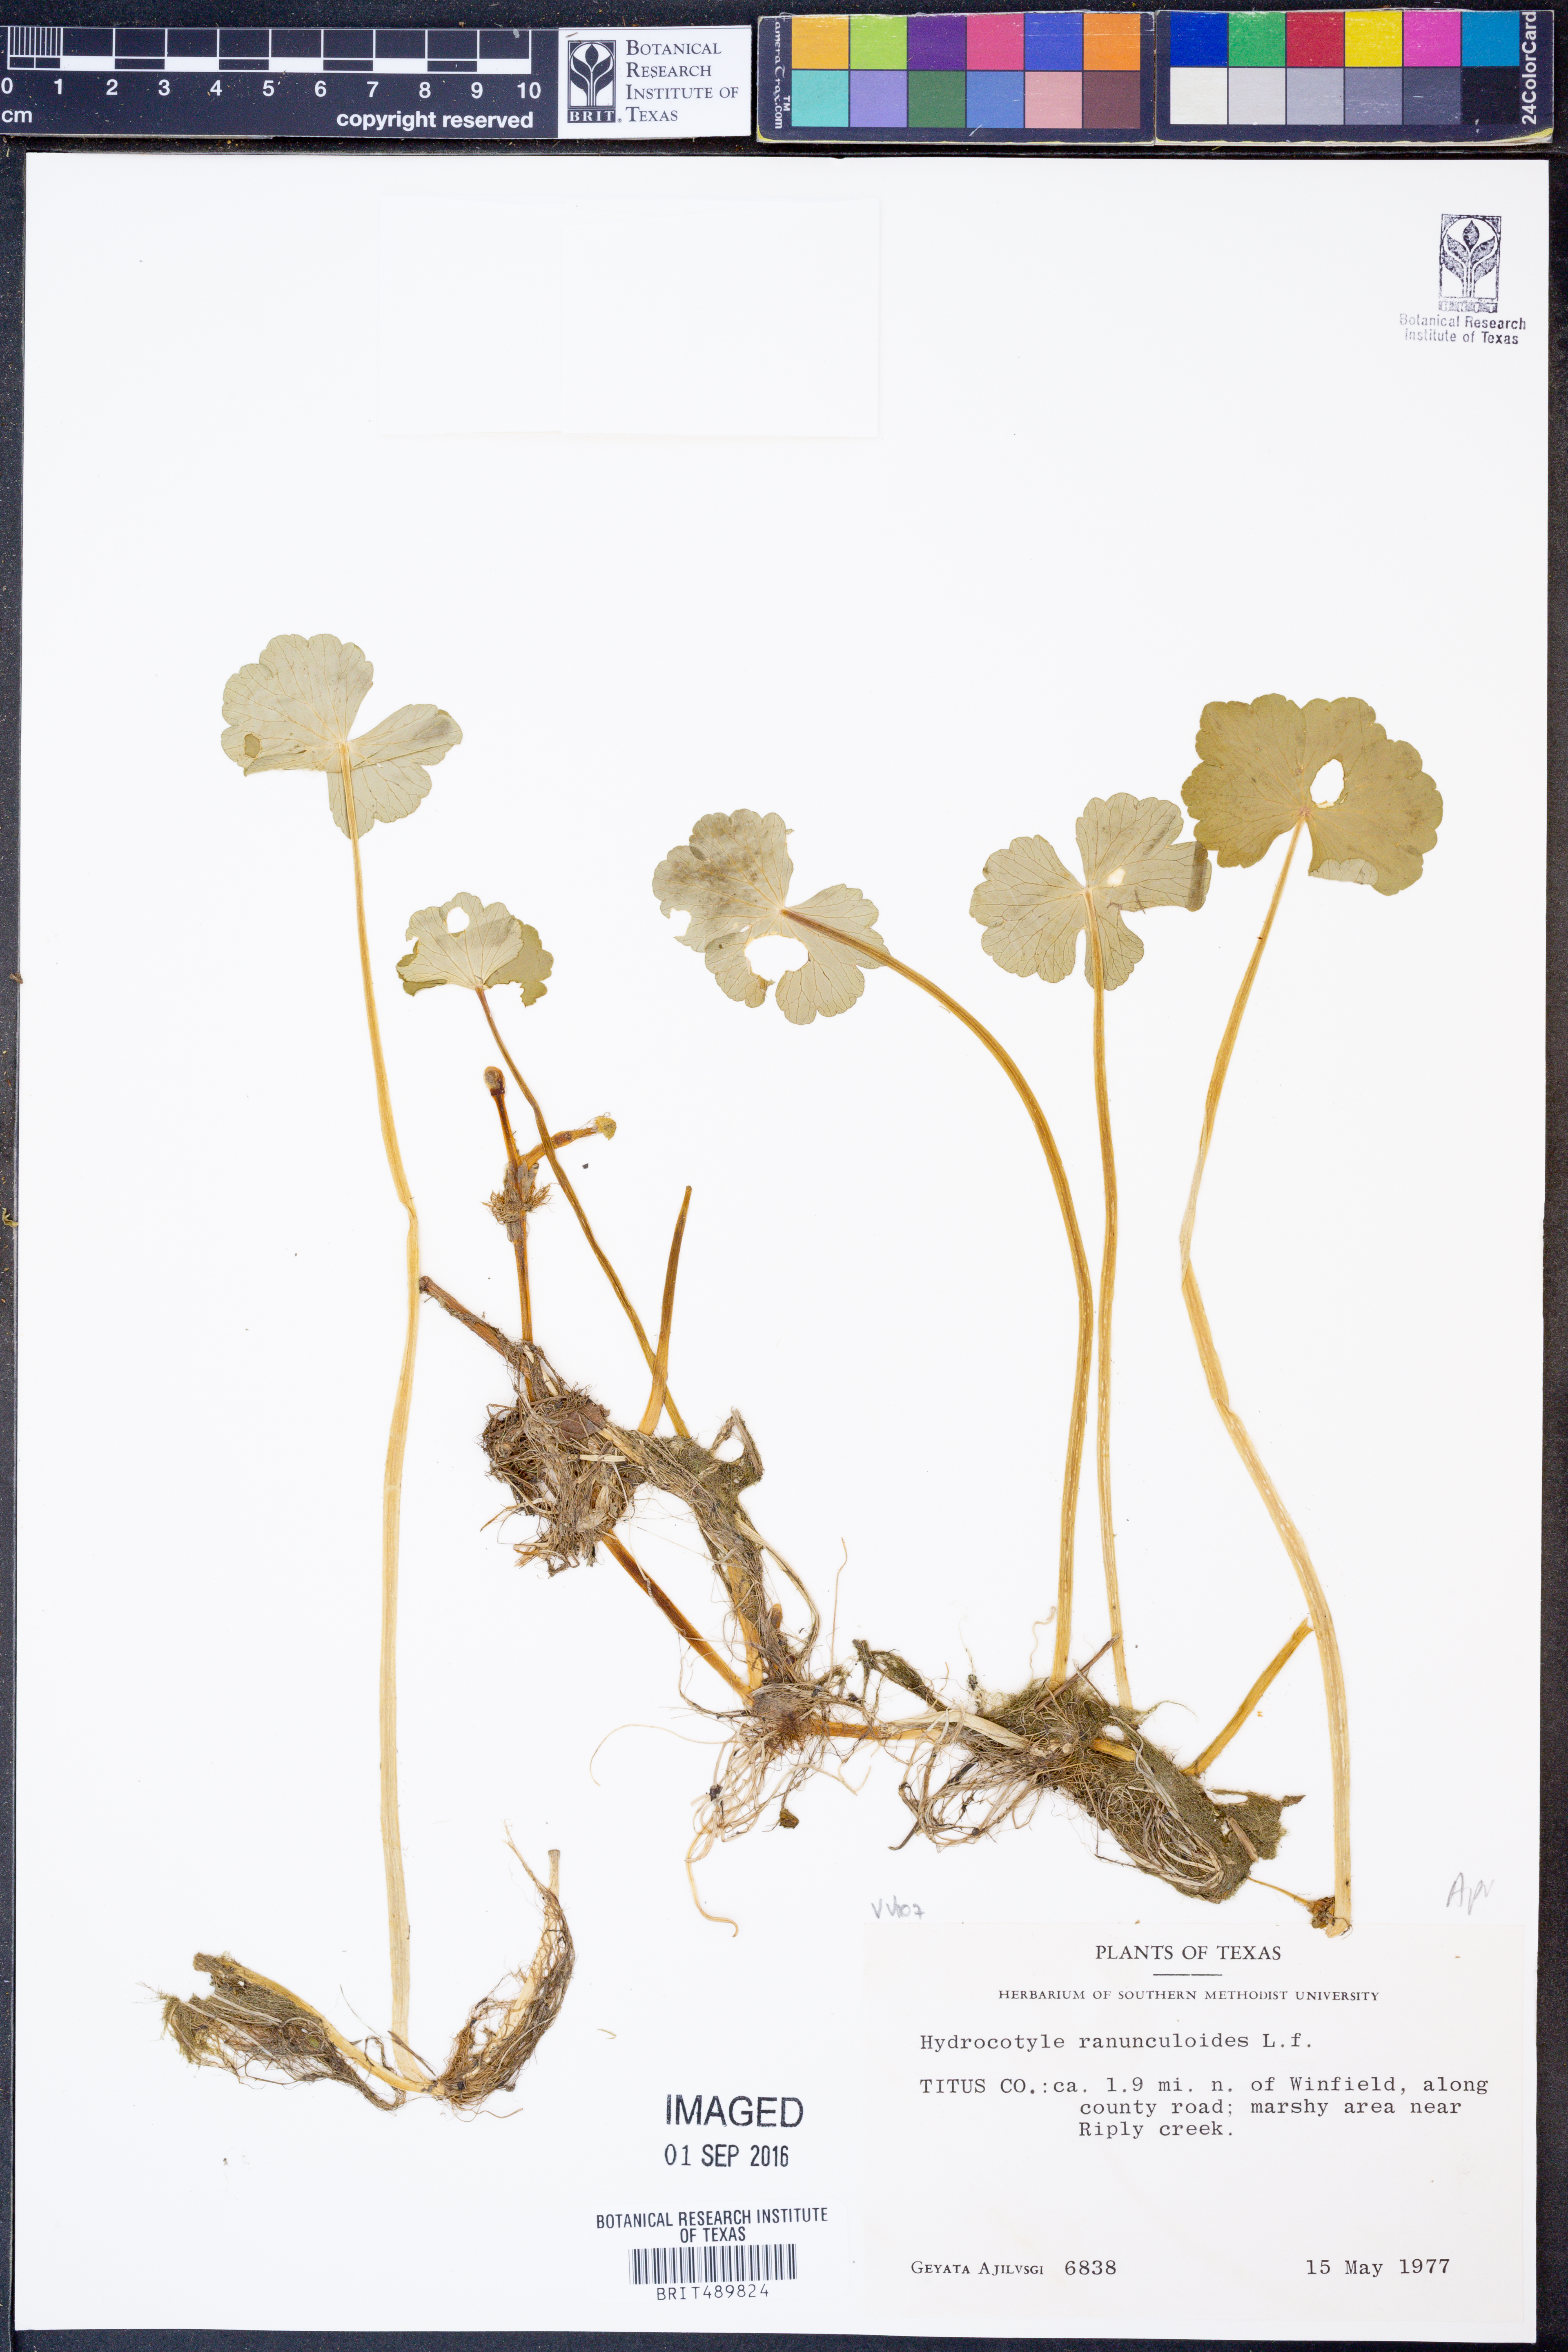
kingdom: Plantae
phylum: Tracheophyta
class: Magnoliopsida
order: Apiales
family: Araliaceae
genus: Hydrocotyle
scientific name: Hydrocotyle ranunculoides
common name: Floating pennywort
